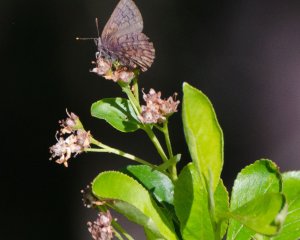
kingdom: Animalia
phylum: Arthropoda
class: Insecta
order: Lepidoptera
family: Lycaenidae
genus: Incisalia
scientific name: Incisalia niphon
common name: Eastern Pine Elfin
